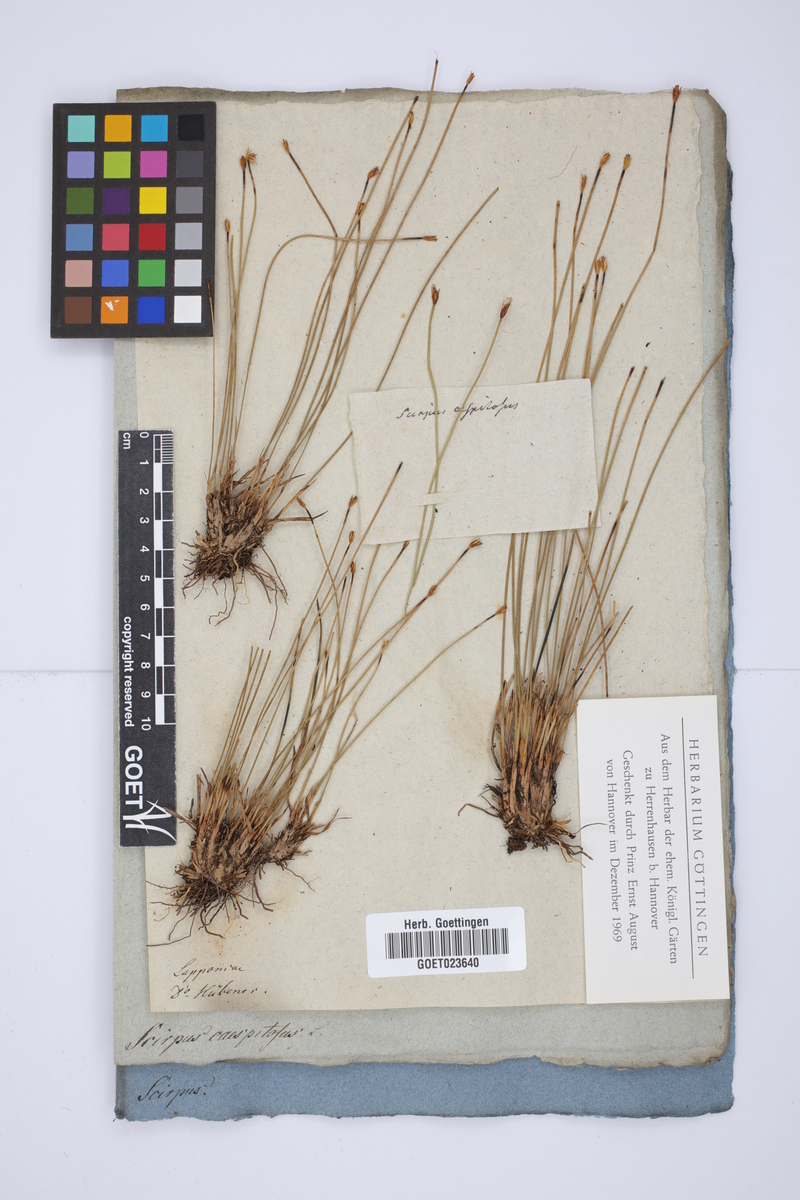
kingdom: Plantae
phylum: Tracheophyta
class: Liliopsida
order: Poales
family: Cyperaceae
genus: Trichophorum
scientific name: Trichophorum cespitosum
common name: Cespitose bulrush
